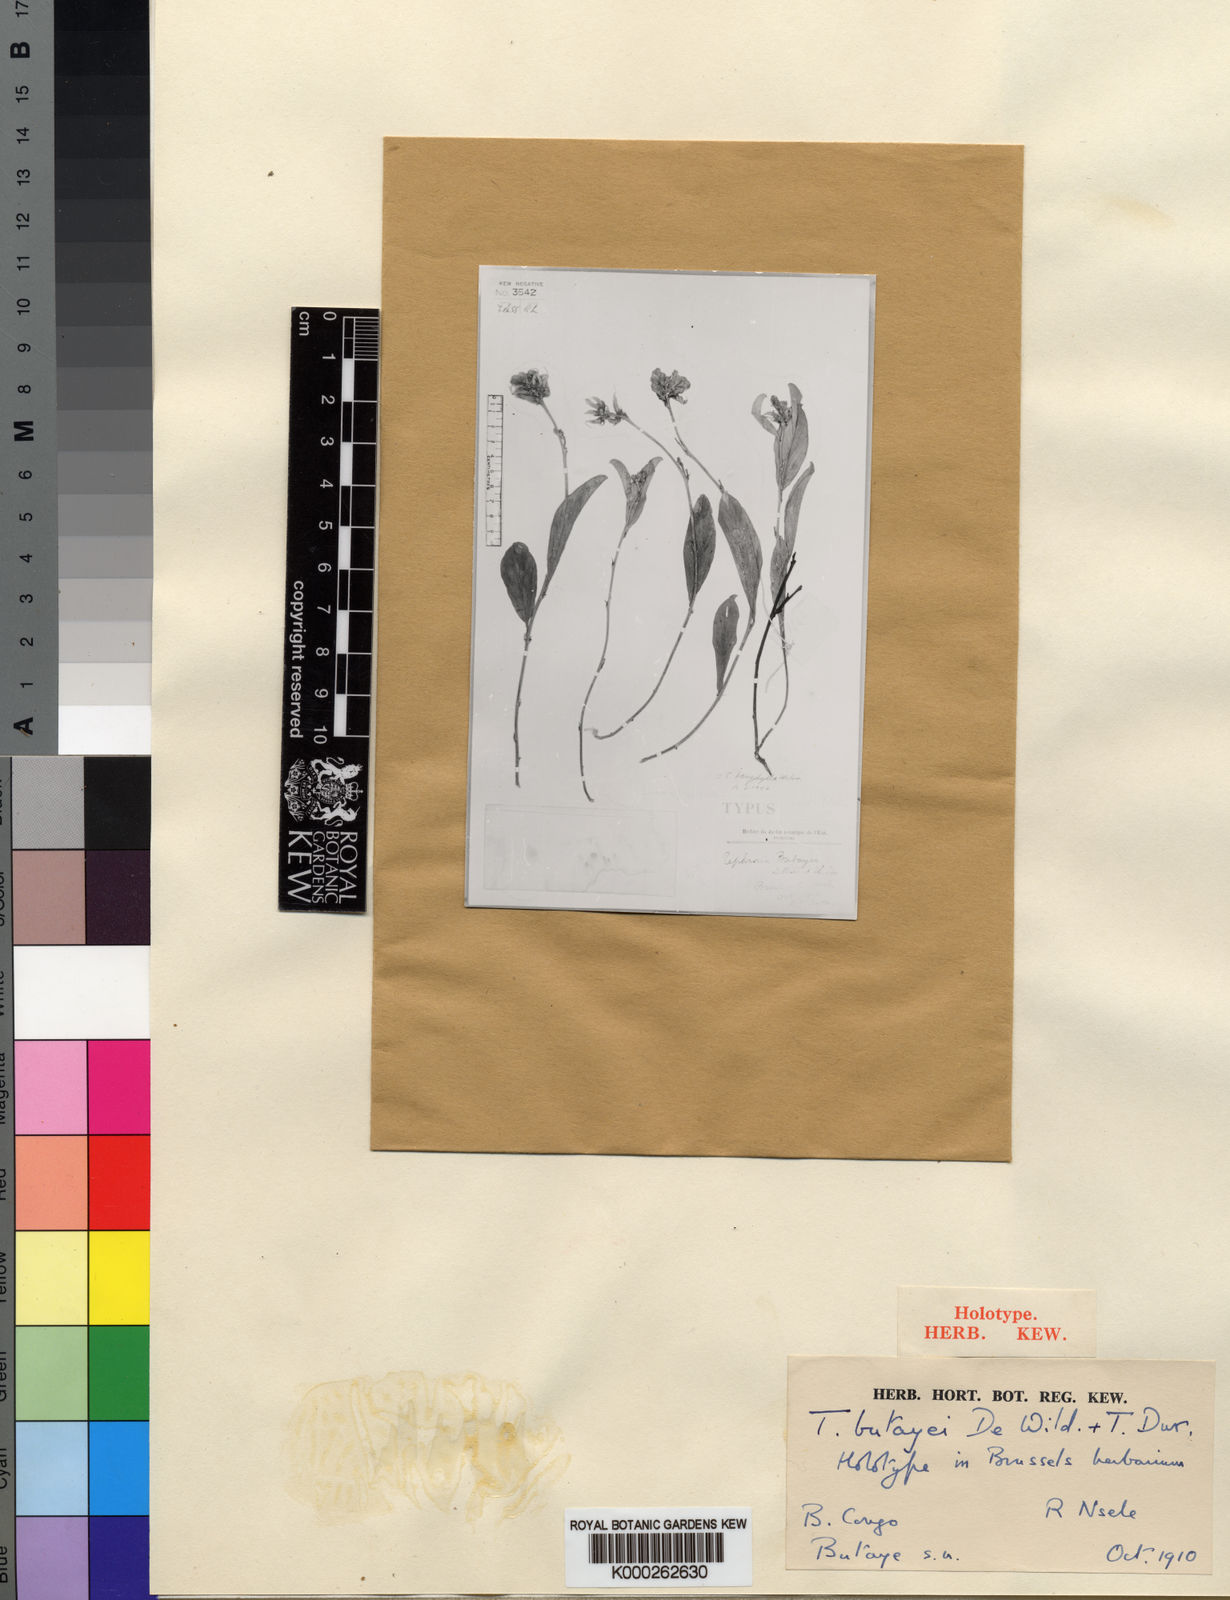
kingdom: Plantae
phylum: Tracheophyta
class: Magnoliopsida
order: Fabales
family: Fabaceae
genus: Tephrosia
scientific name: Tephrosia dasyphylla
